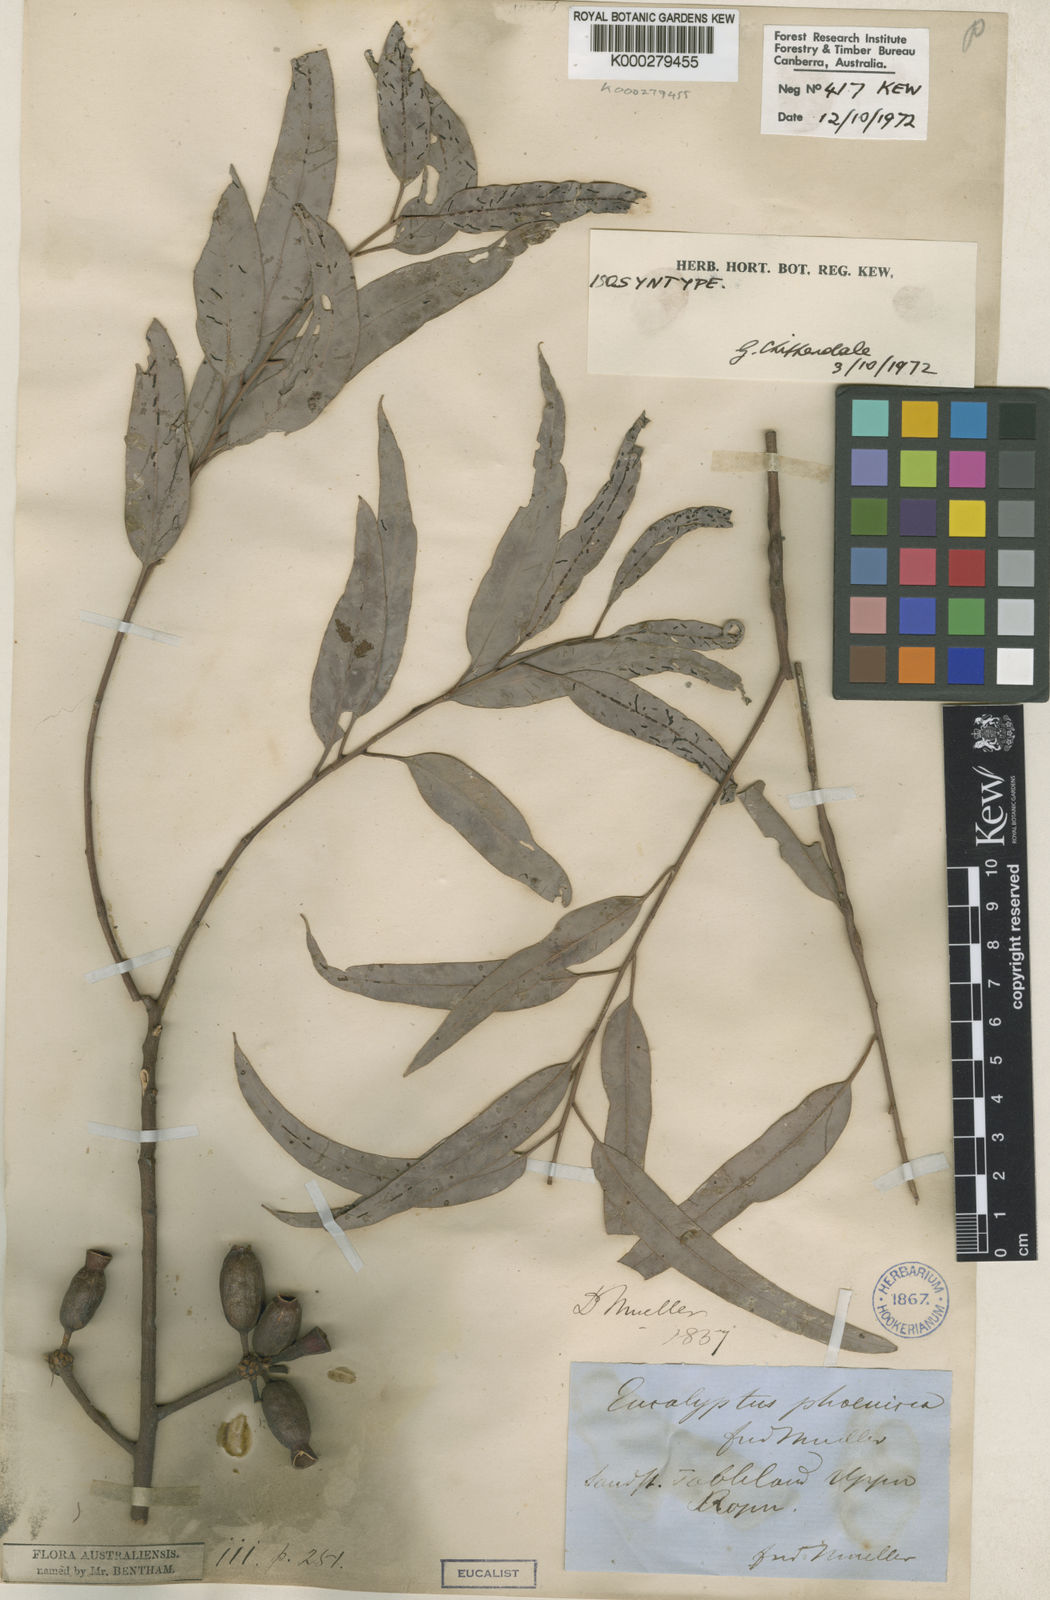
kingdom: Plantae
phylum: Tracheophyta
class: Magnoliopsida
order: Myrtales
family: Myrtaceae
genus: Eucalyptus
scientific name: Eucalyptus phoenicea
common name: Gnaingar
